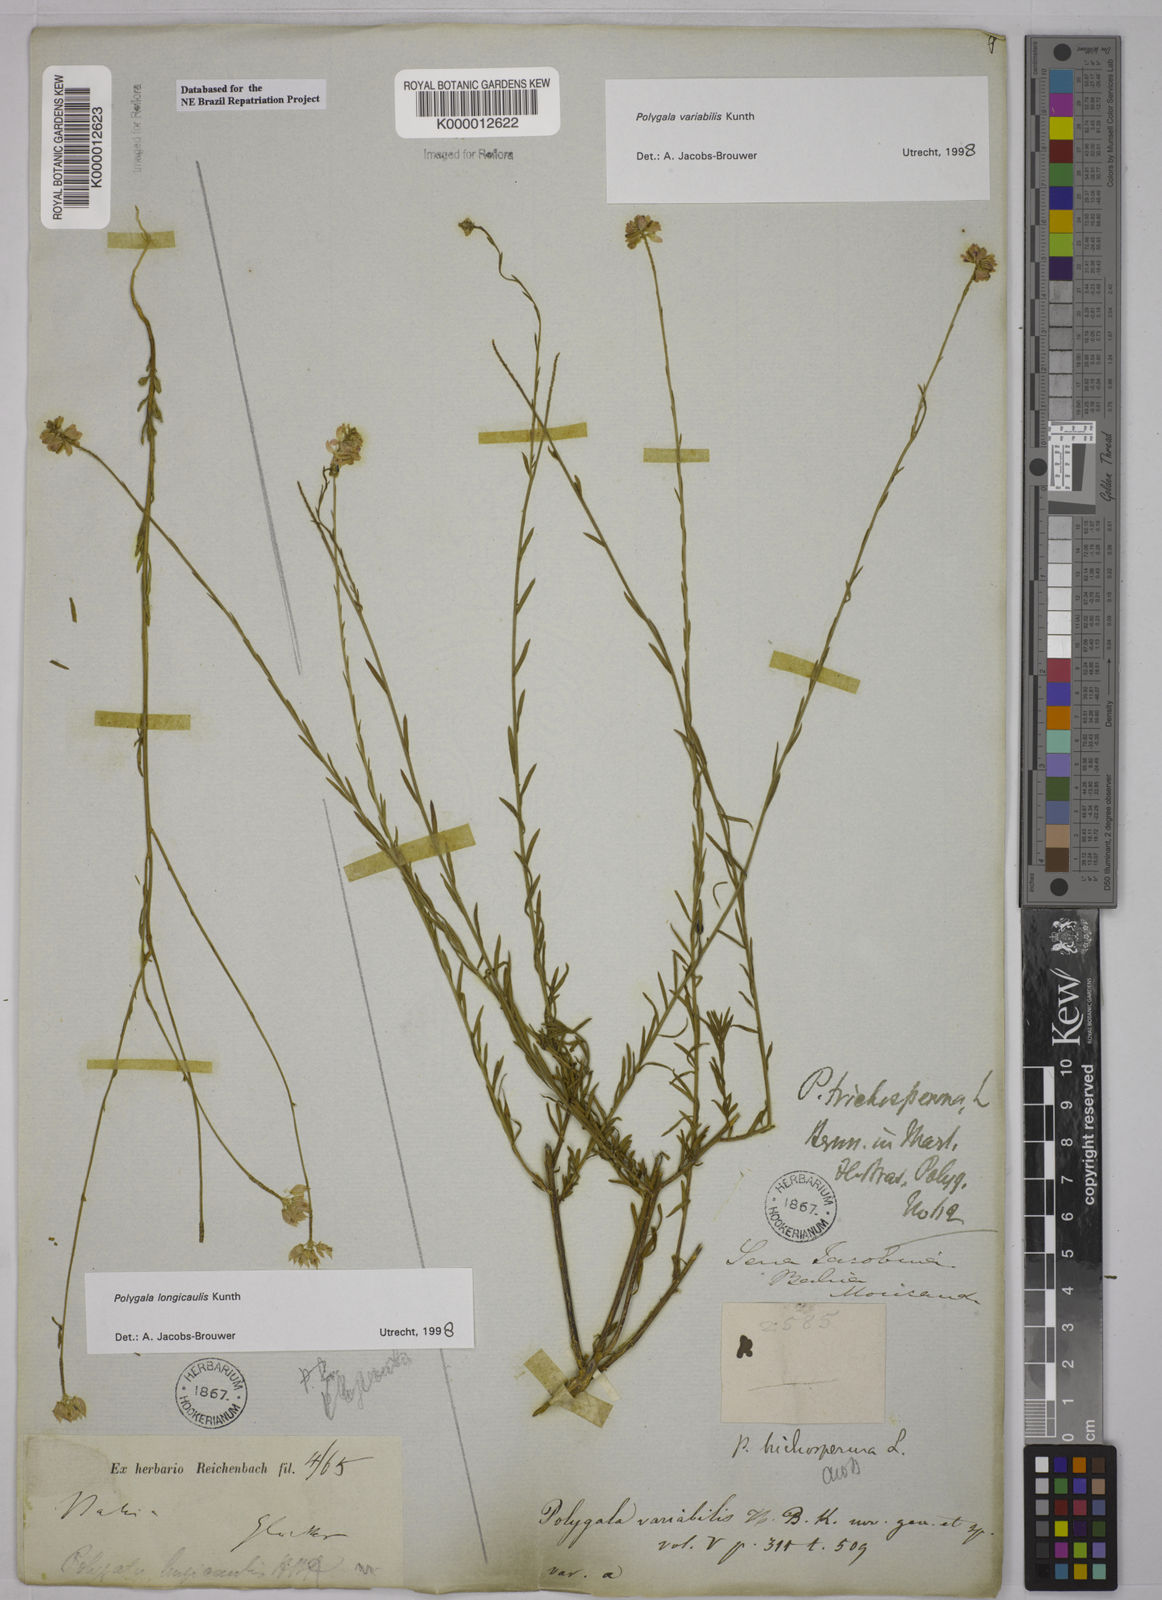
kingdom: Plantae
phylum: Tracheophyta
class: Magnoliopsida
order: Fabales
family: Polygalaceae
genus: Polygala
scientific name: Polygala trichosperma
